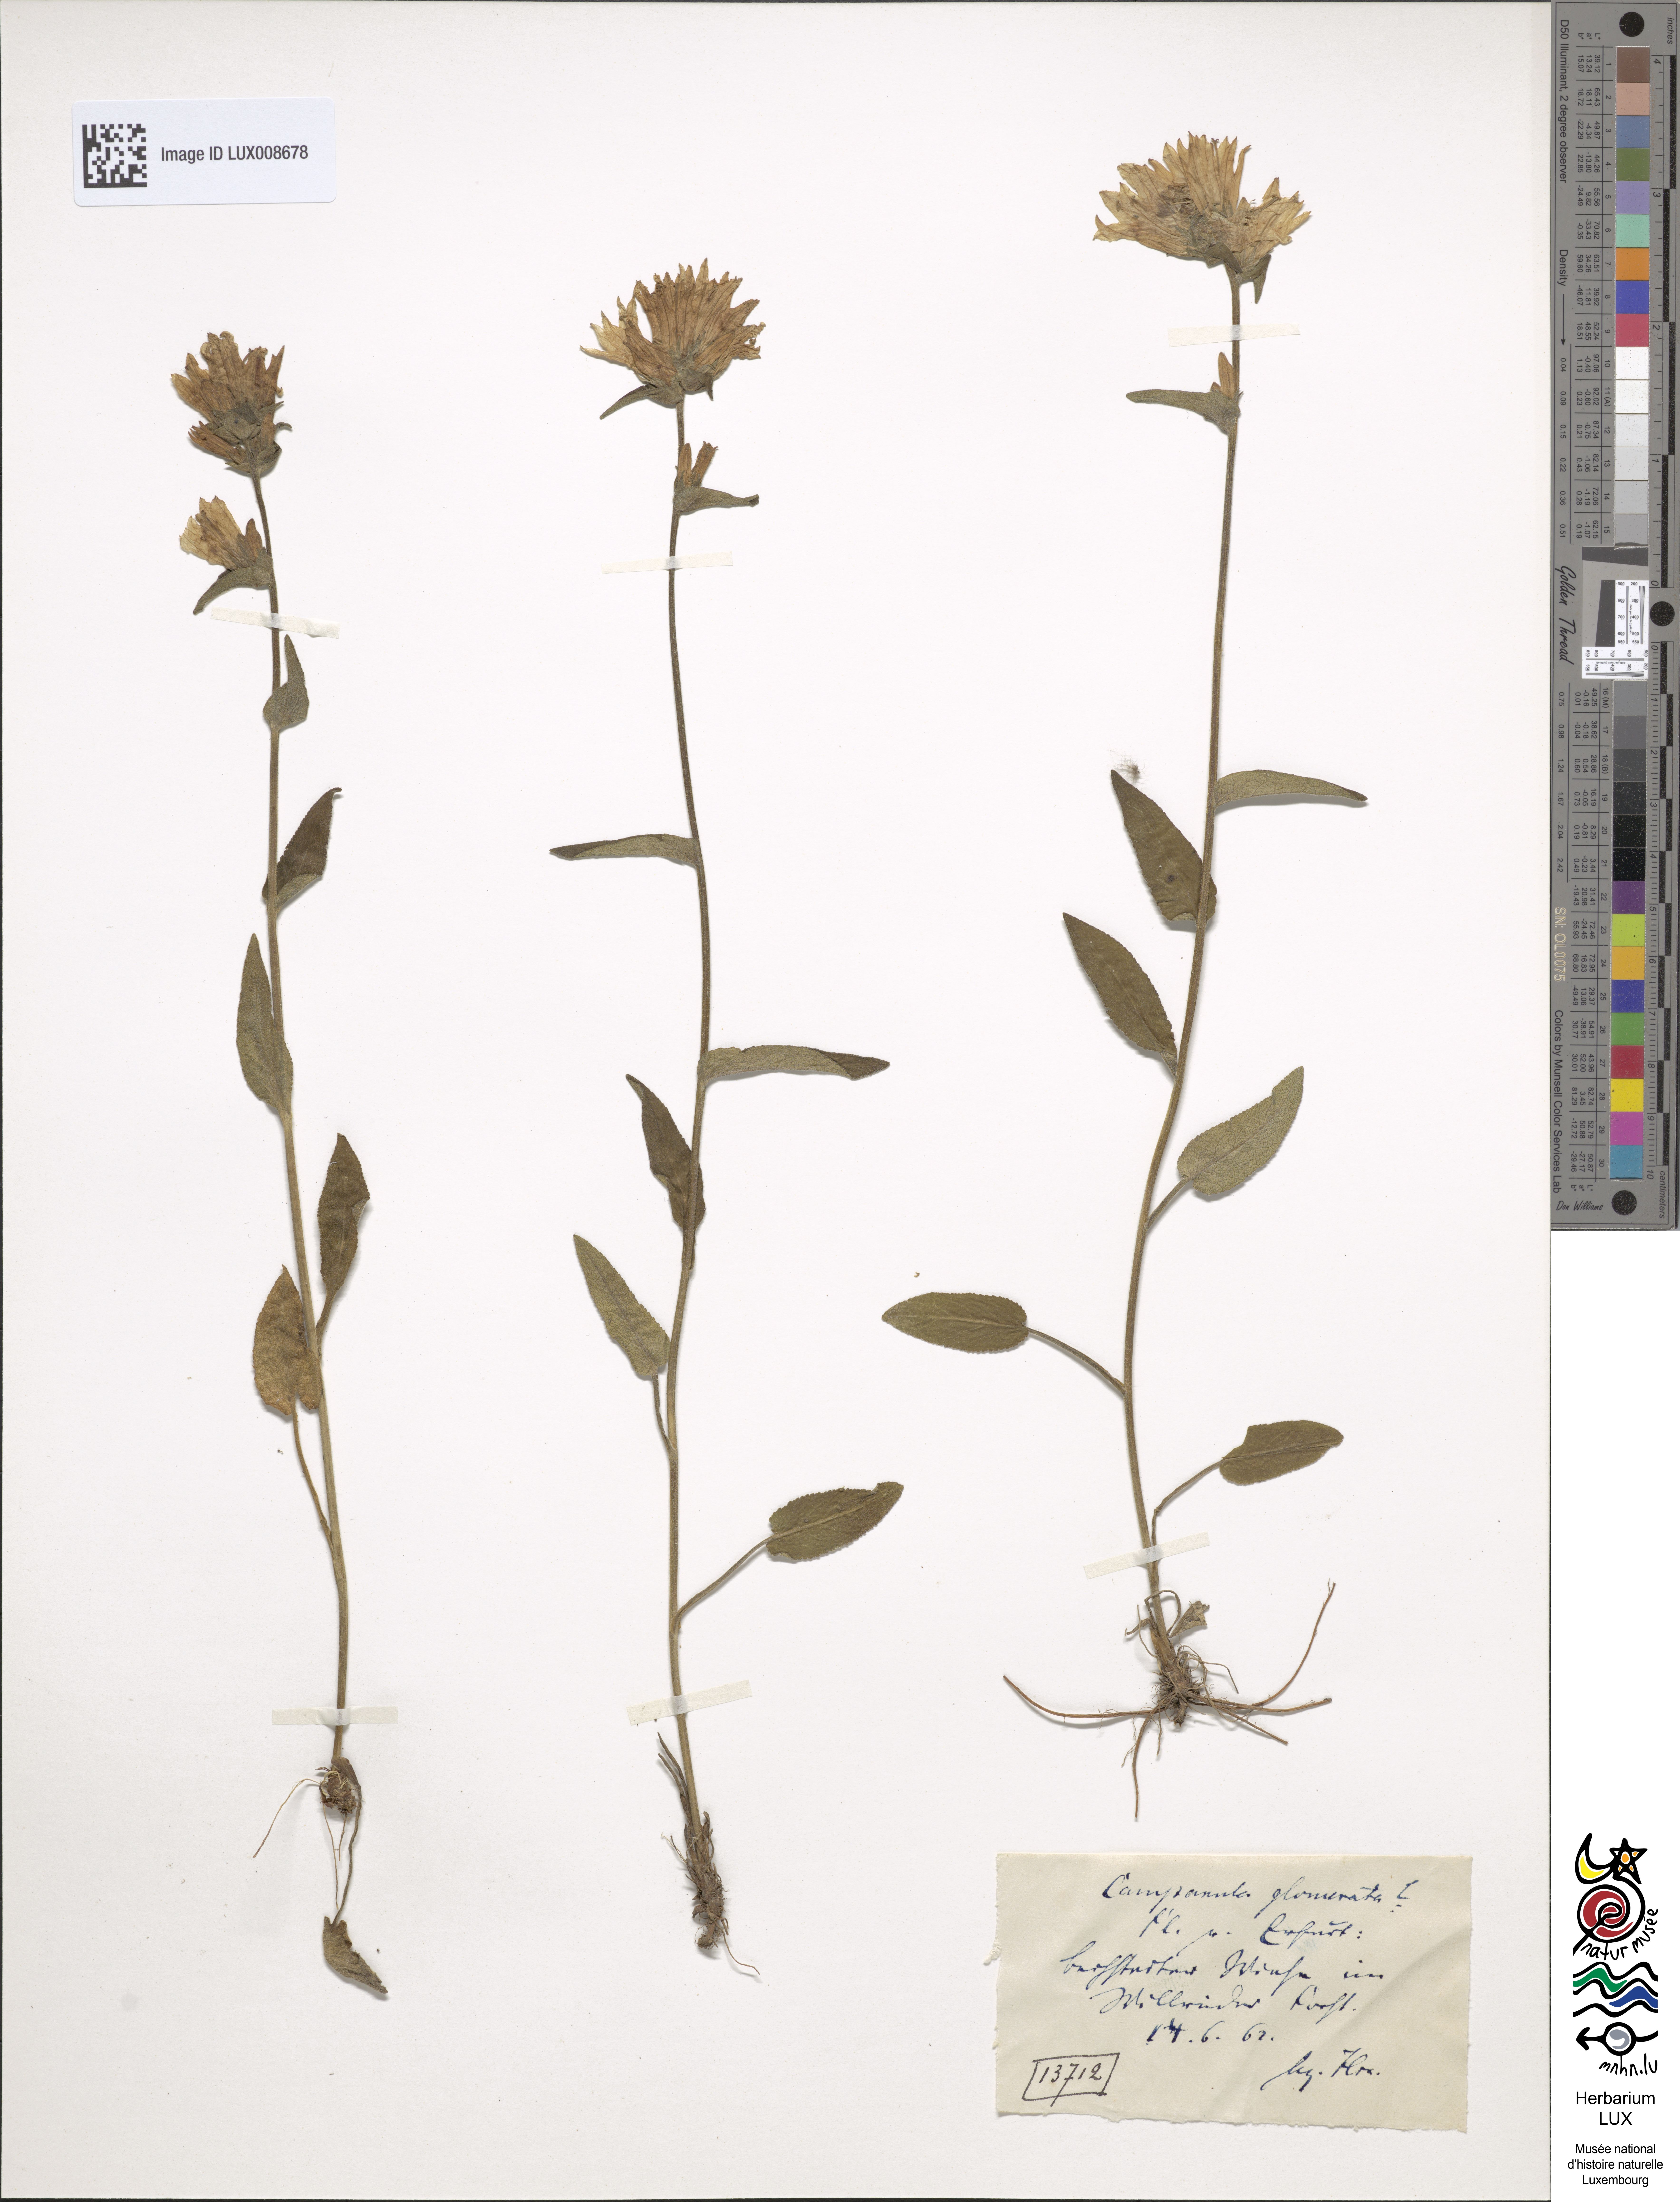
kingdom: Plantae
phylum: Tracheophyta
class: Magnoliopsida
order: Asterales
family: Campanulaceae
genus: Campanula
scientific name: Campanula glomerata
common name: Clustered bellflower
